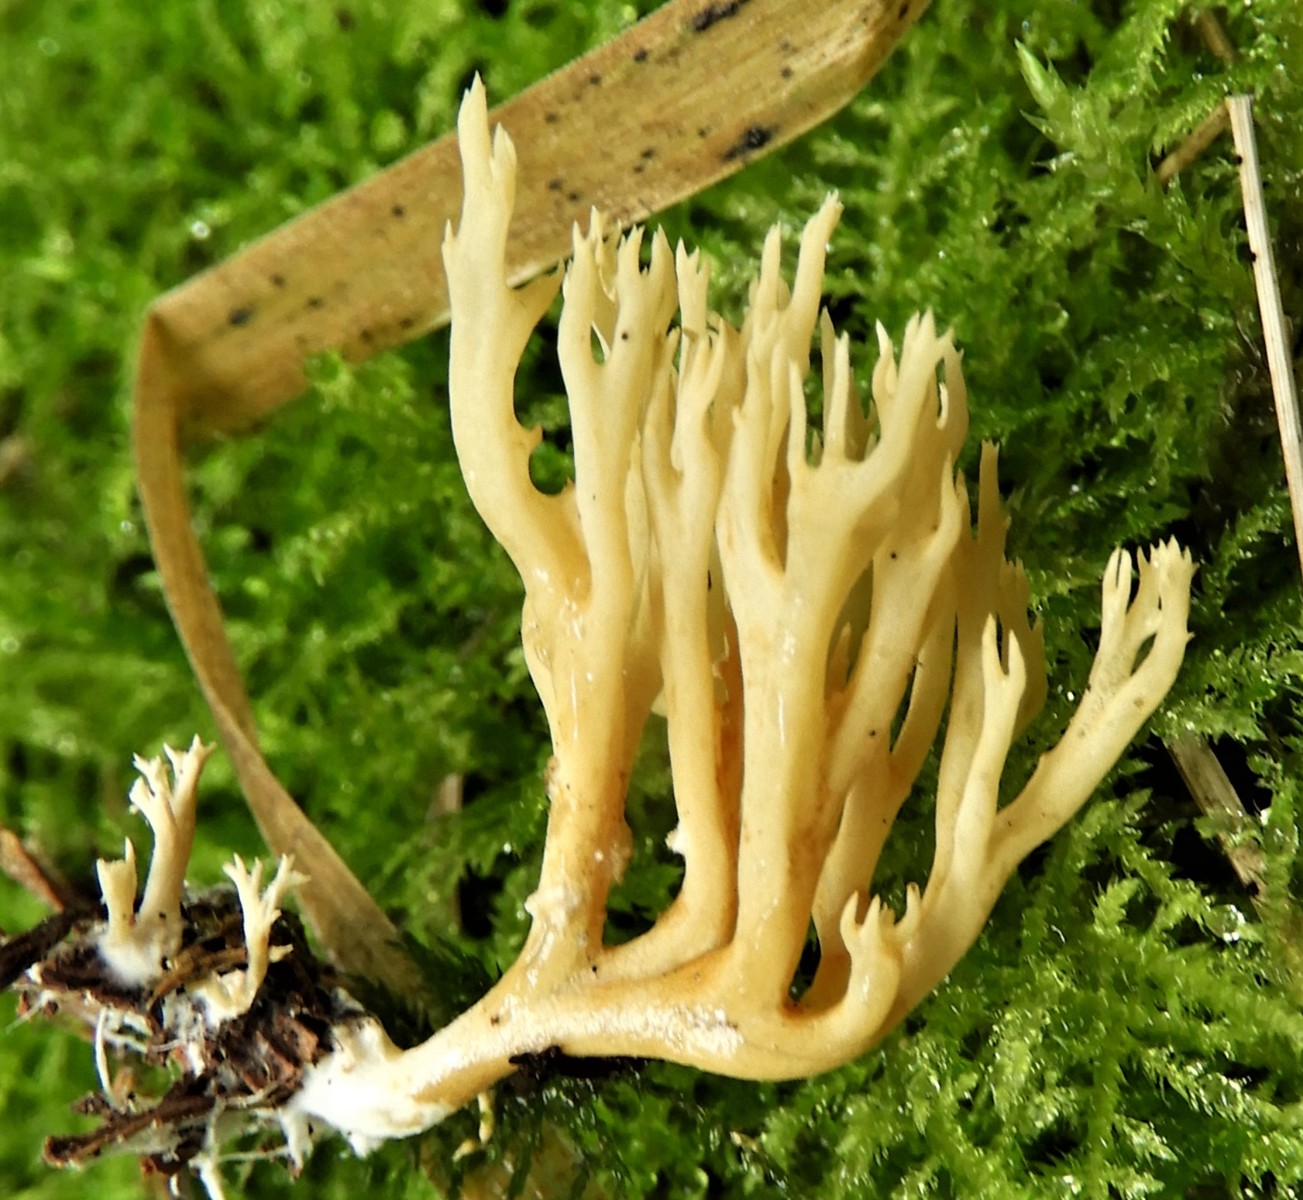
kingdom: Fungi
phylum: Basidiomycota
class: Agaricomycetes
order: Gomphales
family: Gomphaceae
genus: Phaeoclavulina
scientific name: Phaeoclavulina eumorpha
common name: gran-koralsvamp
